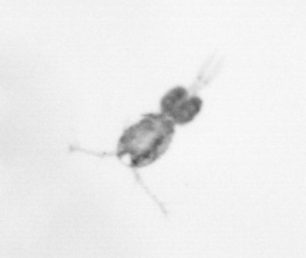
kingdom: Animalia
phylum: Arthropoda
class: Copepoda
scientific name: Copepoda
